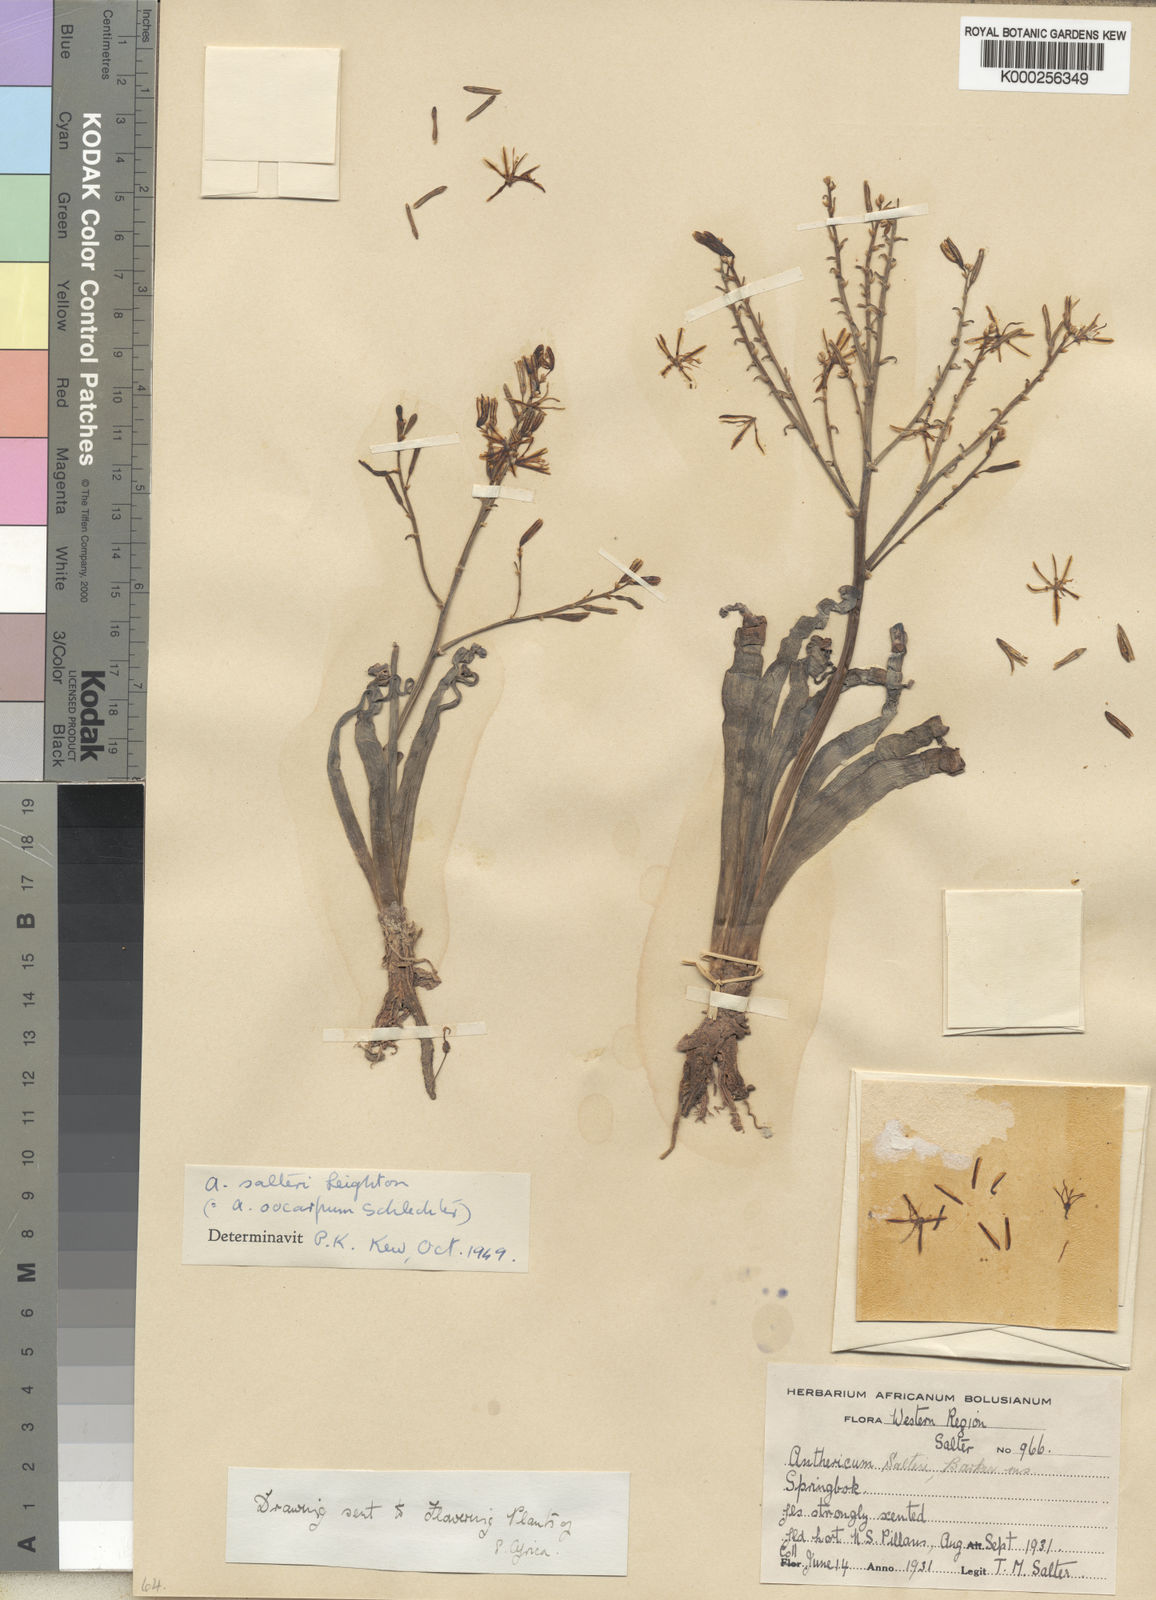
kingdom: Plantae
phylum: Tracheophyta
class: Liliopsida
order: Asparagales
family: Asphodelaceae
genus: Trachyandra
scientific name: Trachyandra tortilis
